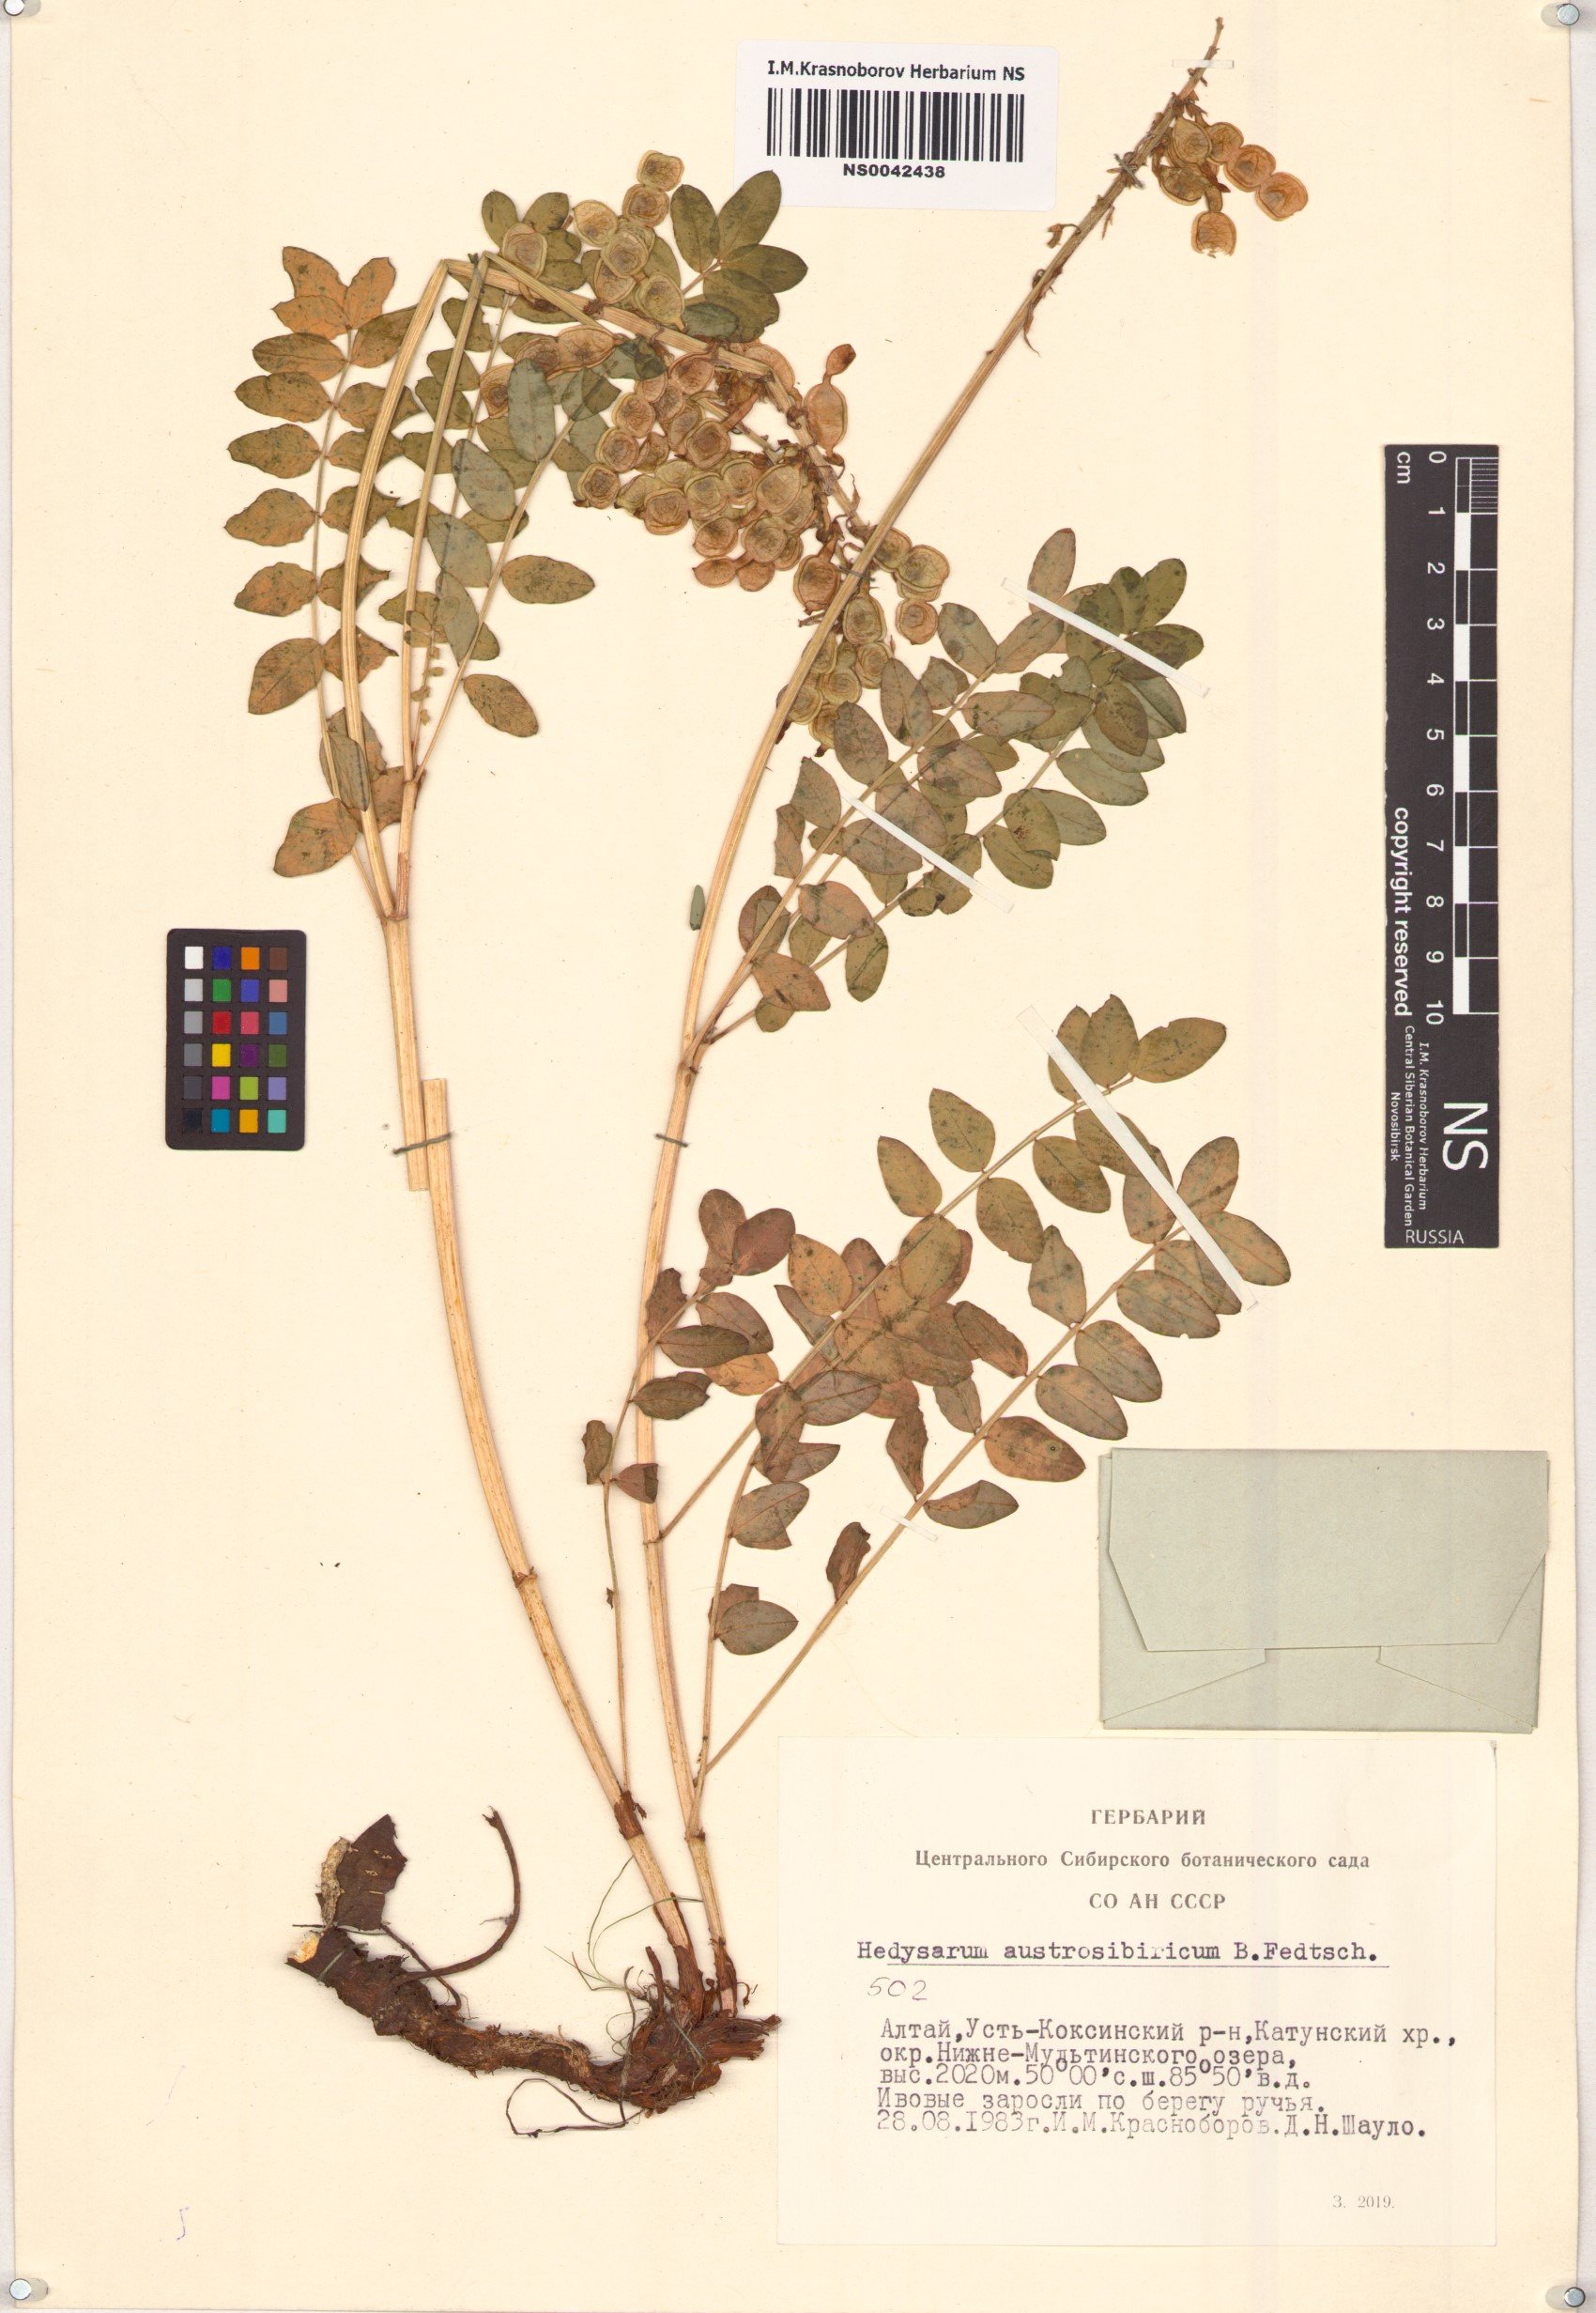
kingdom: Plantae
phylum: Tracheophyta
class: Magnoliopsida
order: Fabales
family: Fabaceae
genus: Hedysarum
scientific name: Hedysarum neglectum
